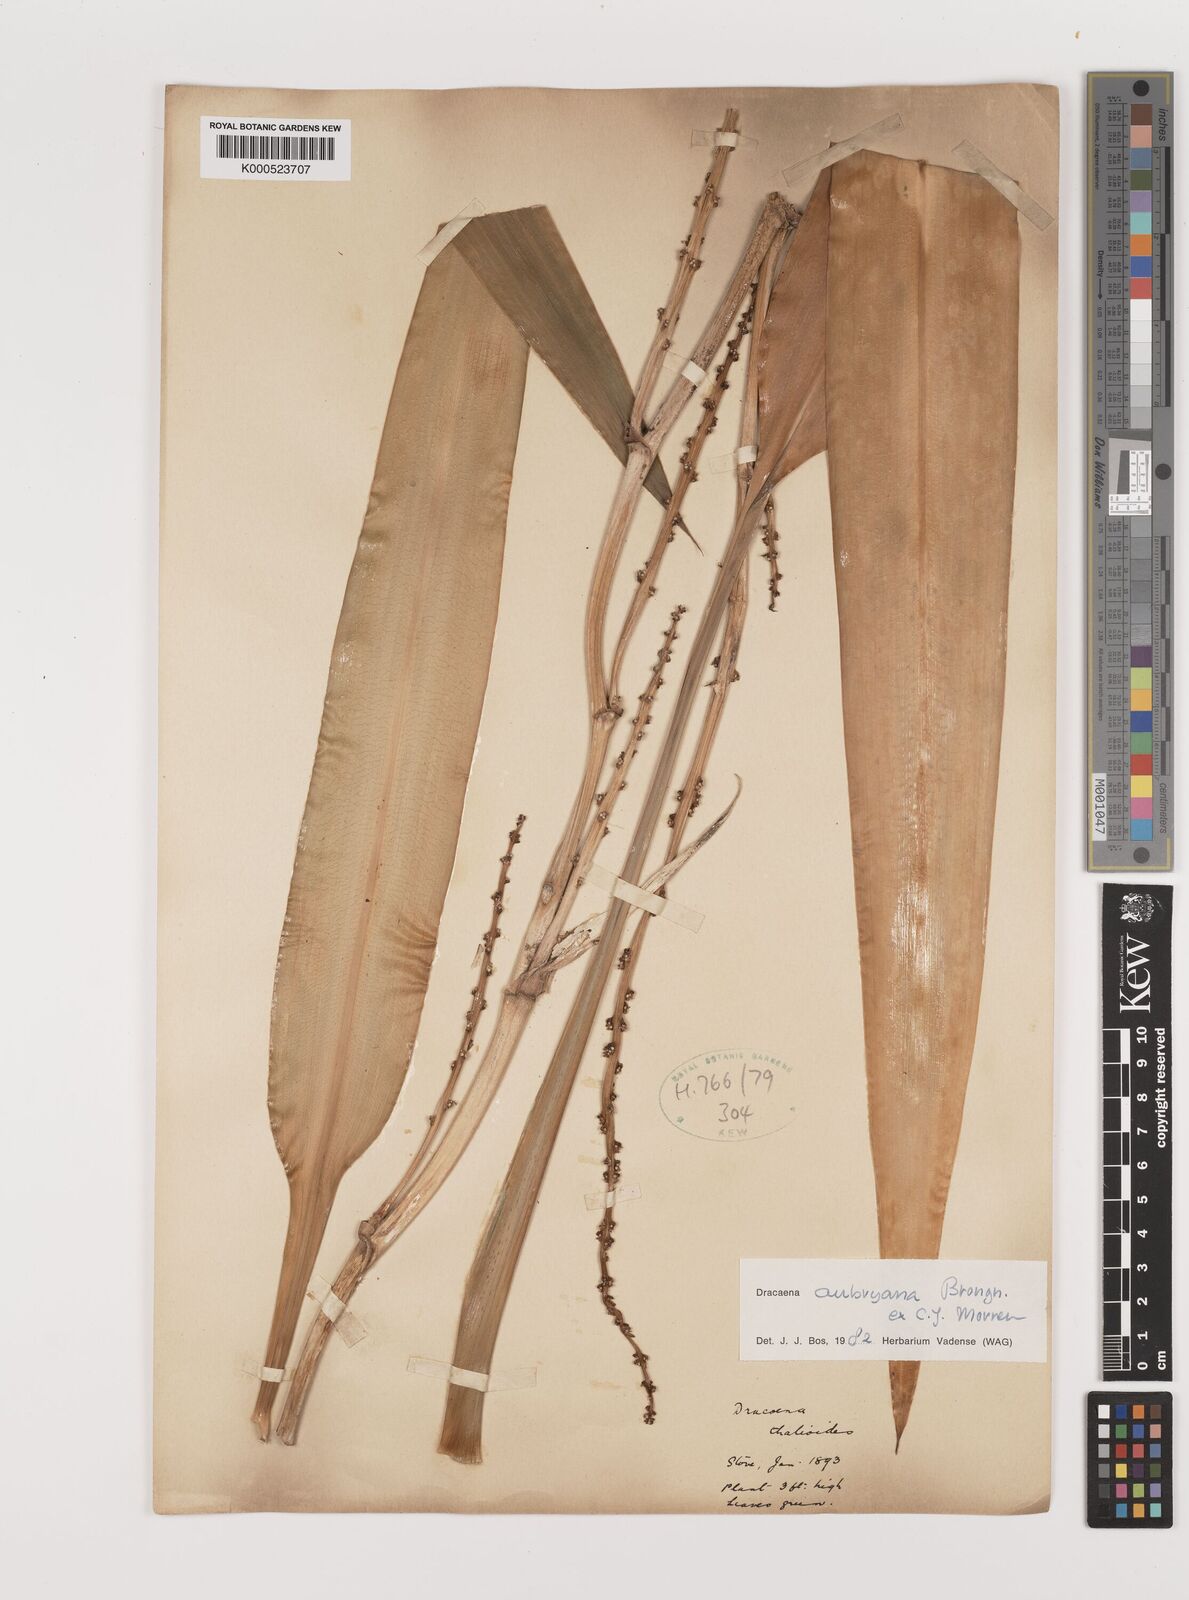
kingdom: Plantae
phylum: Tracheophyta
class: Liliopsida
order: Asparagales
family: Asparagaceae
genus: Dracaena
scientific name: Dracaena aubryana
